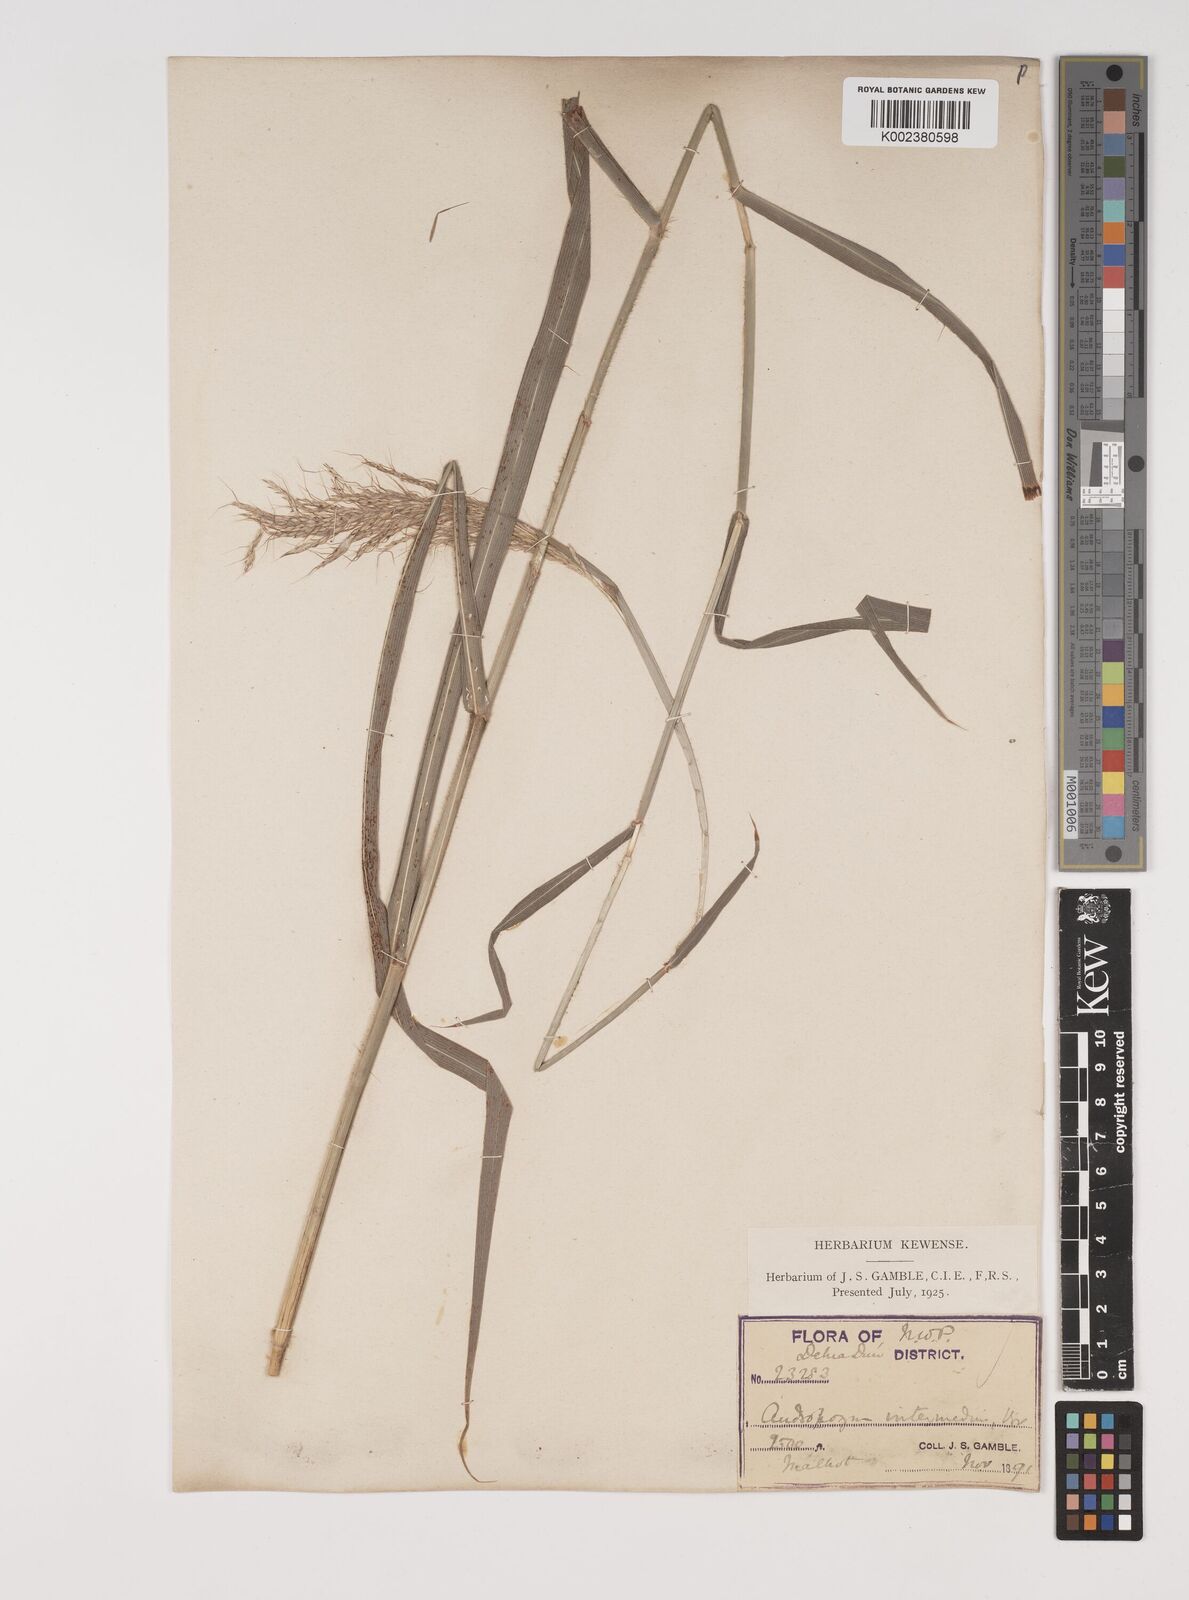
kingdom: Plantae
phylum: Tracheophyta
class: Liliopsida
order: Poales
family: Poaceae
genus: Bothriochloa
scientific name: Bothriochloa bladhii
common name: Caucasian bluestem
